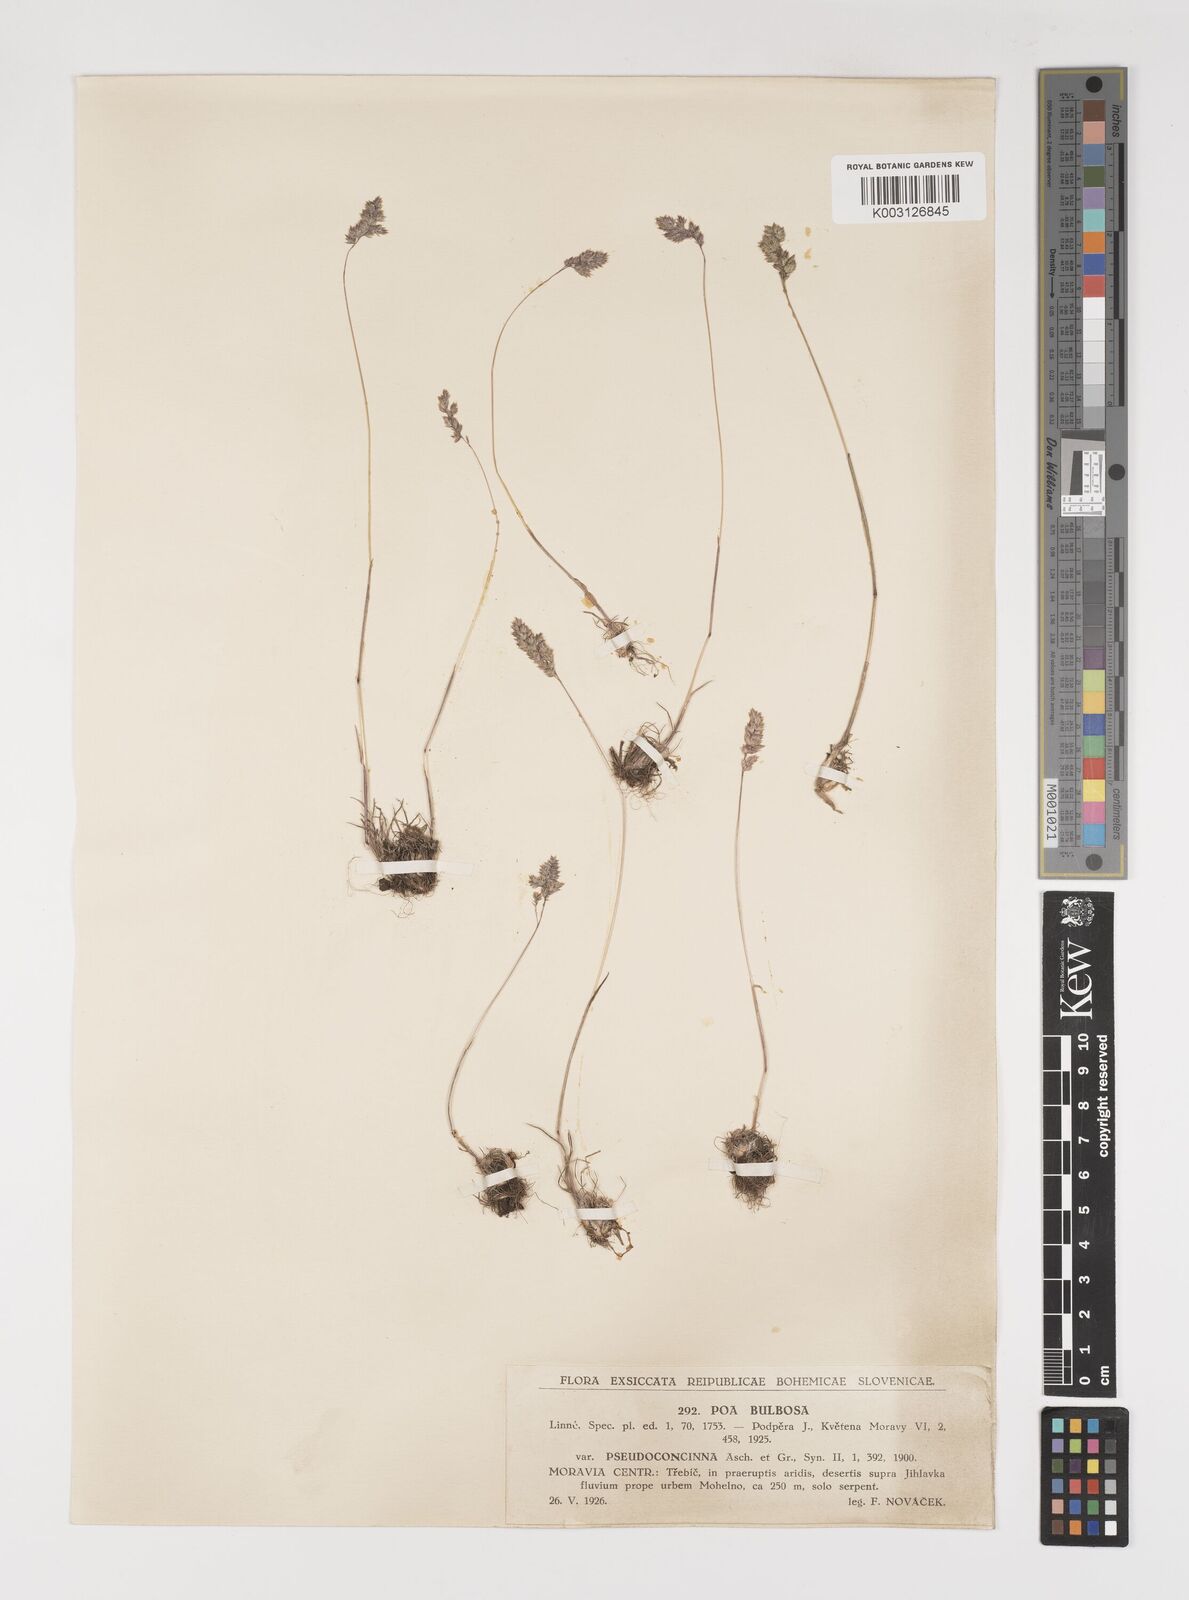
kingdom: Plantae
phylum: Tracheophyta
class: Liliopsida
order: Poales
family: Poaceae
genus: Poa
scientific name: Poa bulbosa
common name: Bulbous bluegrass
